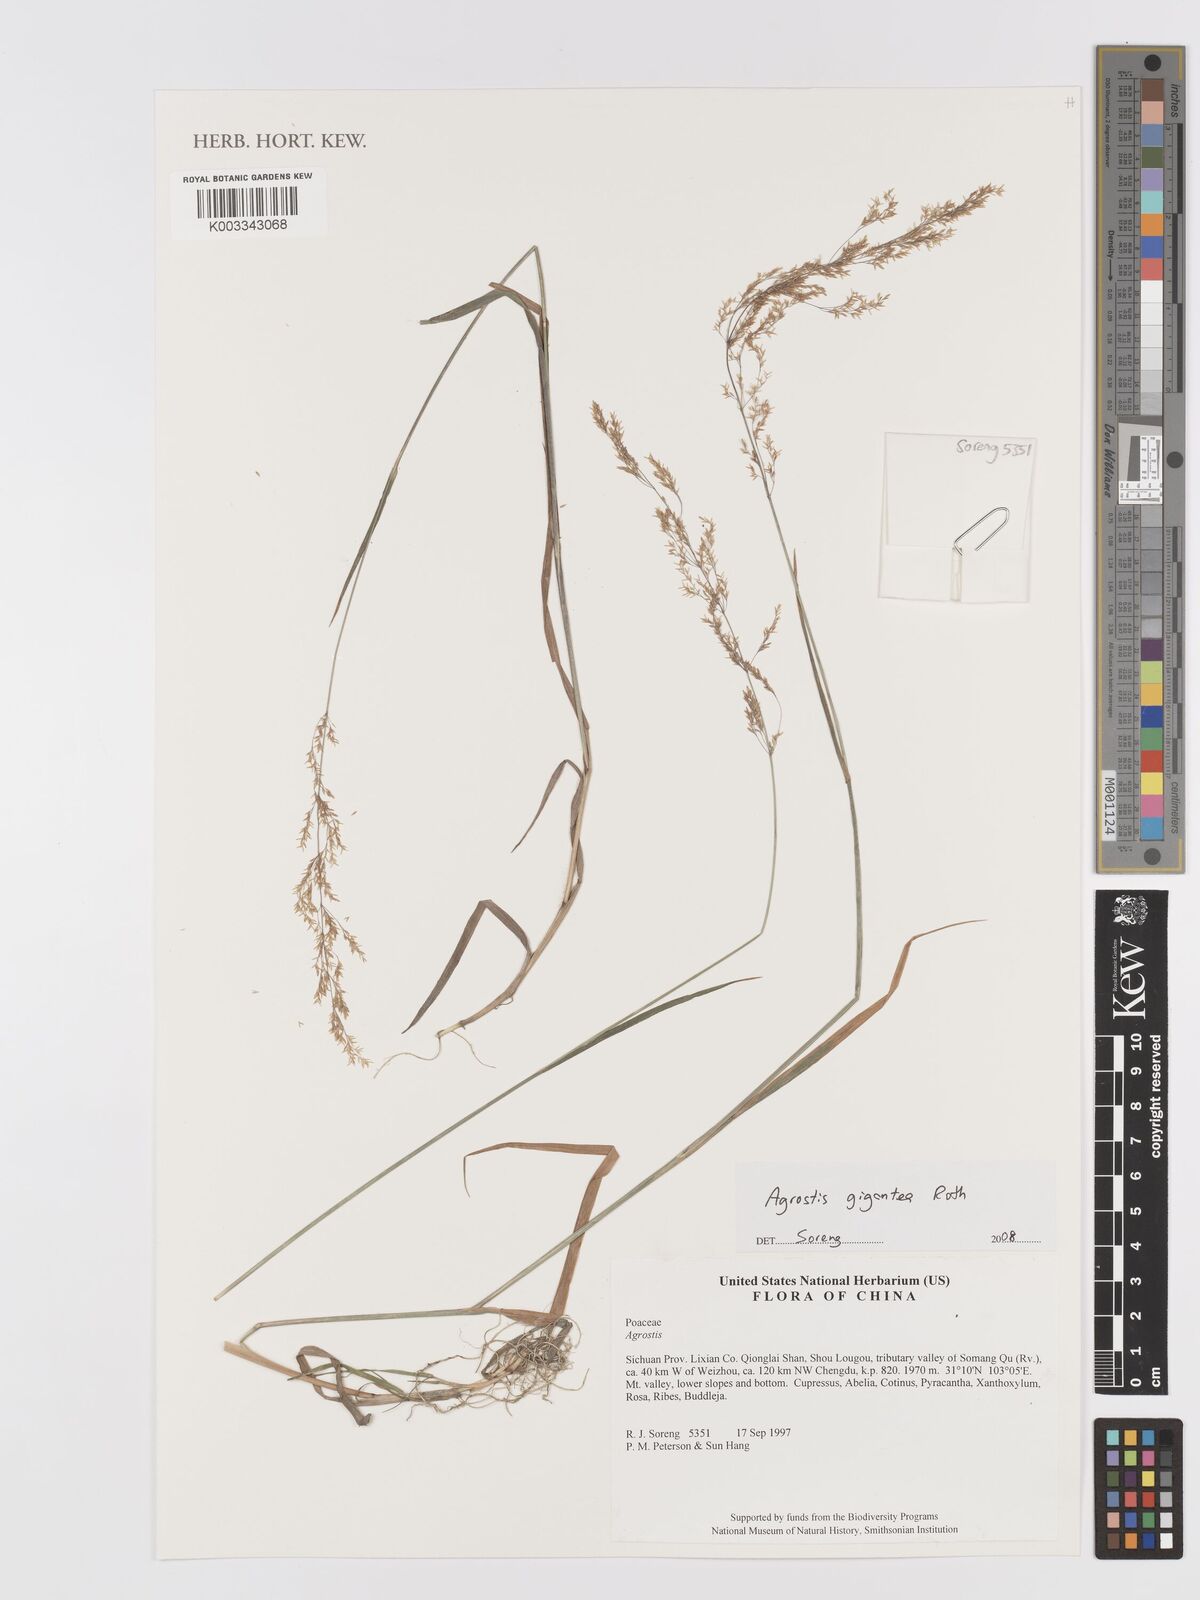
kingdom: Plantae
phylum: Tracheophyta
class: Liliopsida
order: Poales
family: Poaceae
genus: Agrostis
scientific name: Agrostis gigantea
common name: Black bent
